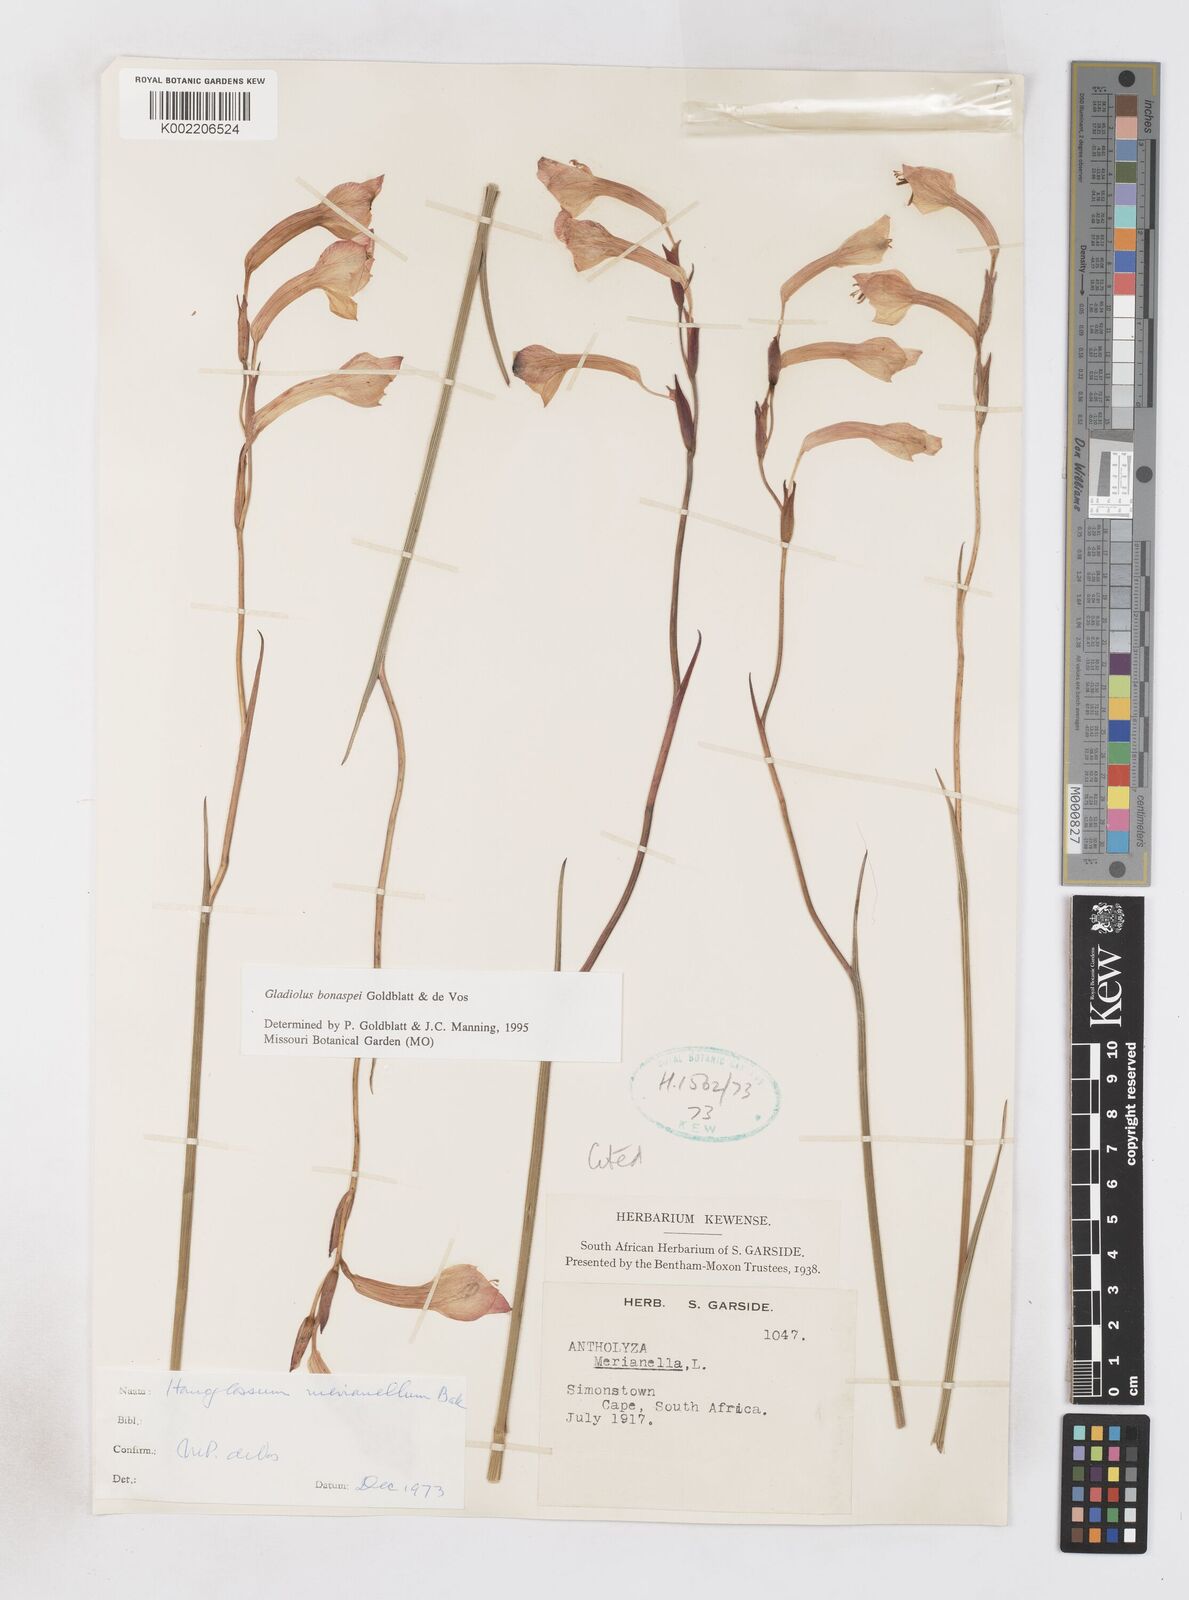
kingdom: Plantae
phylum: Tracheophyta
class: Liliopsida
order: Asparagales
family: Iridaceae
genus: Gladiolus
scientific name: Gladiolus merianellus
